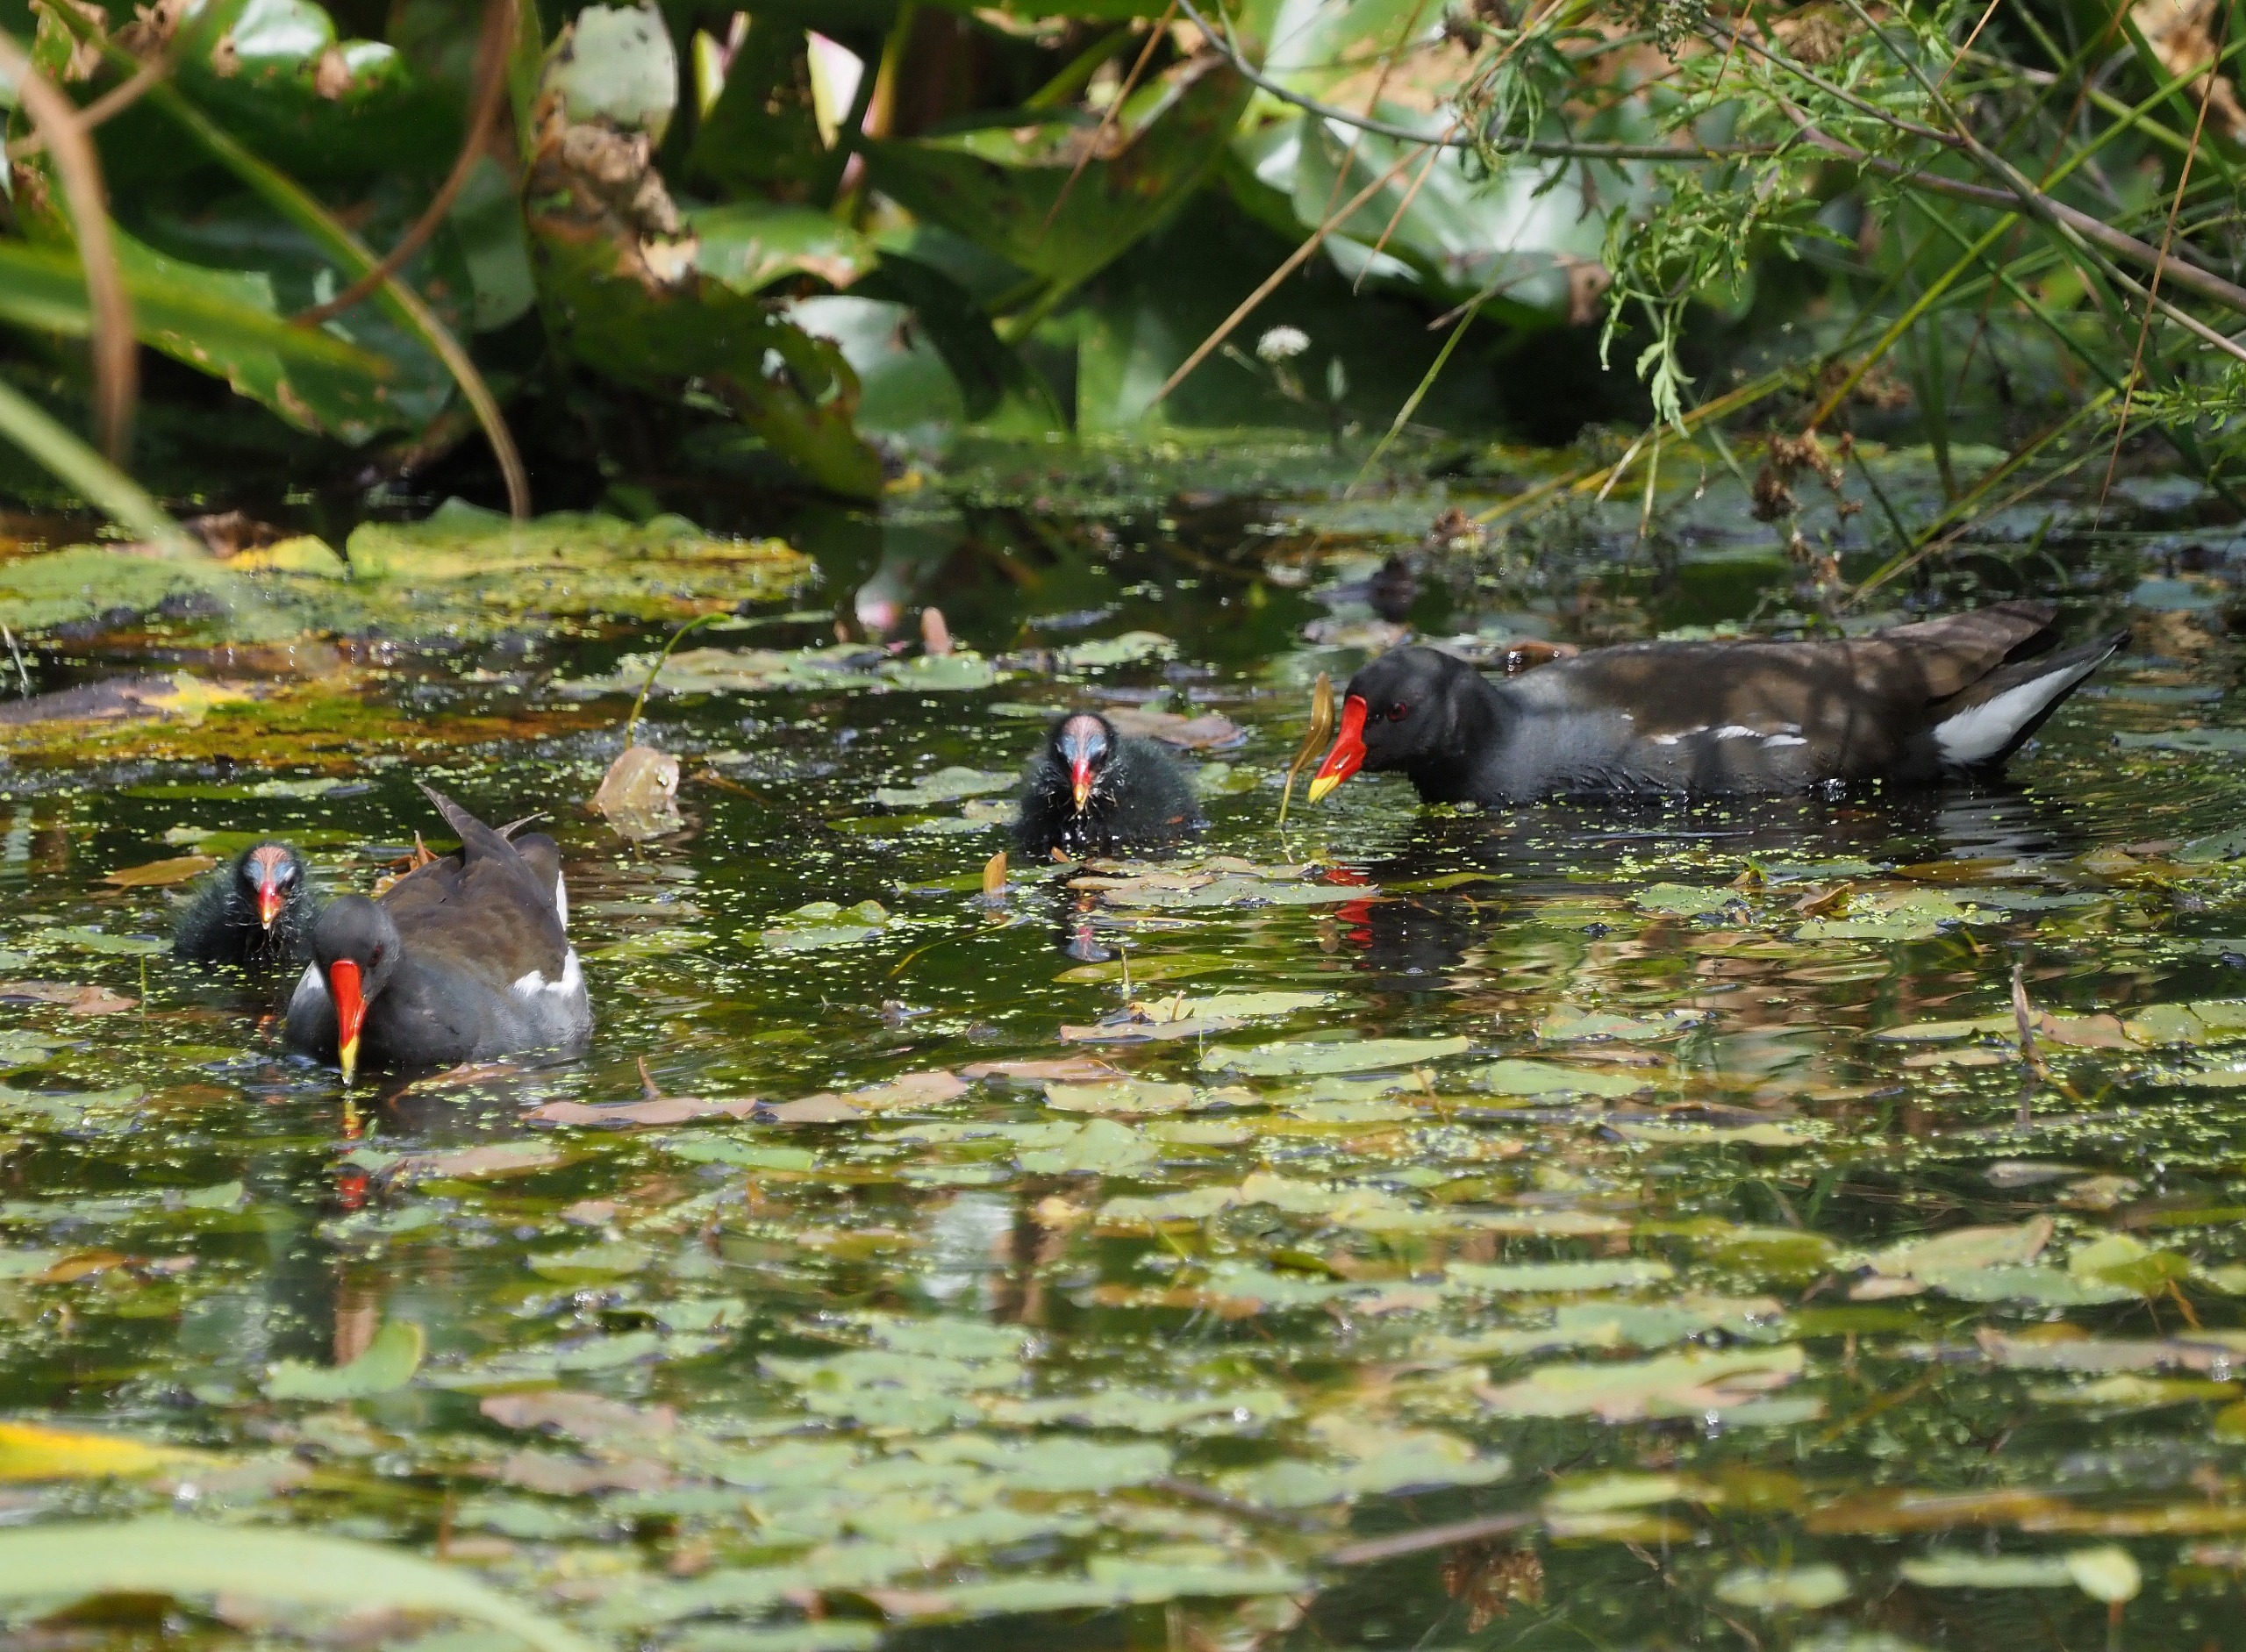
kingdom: Animalia
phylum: Chordata
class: Aves
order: Gruiformes
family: Rallidae
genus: Gallinula
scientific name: Gallinula chloropus
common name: Grønbenet rørhøne
